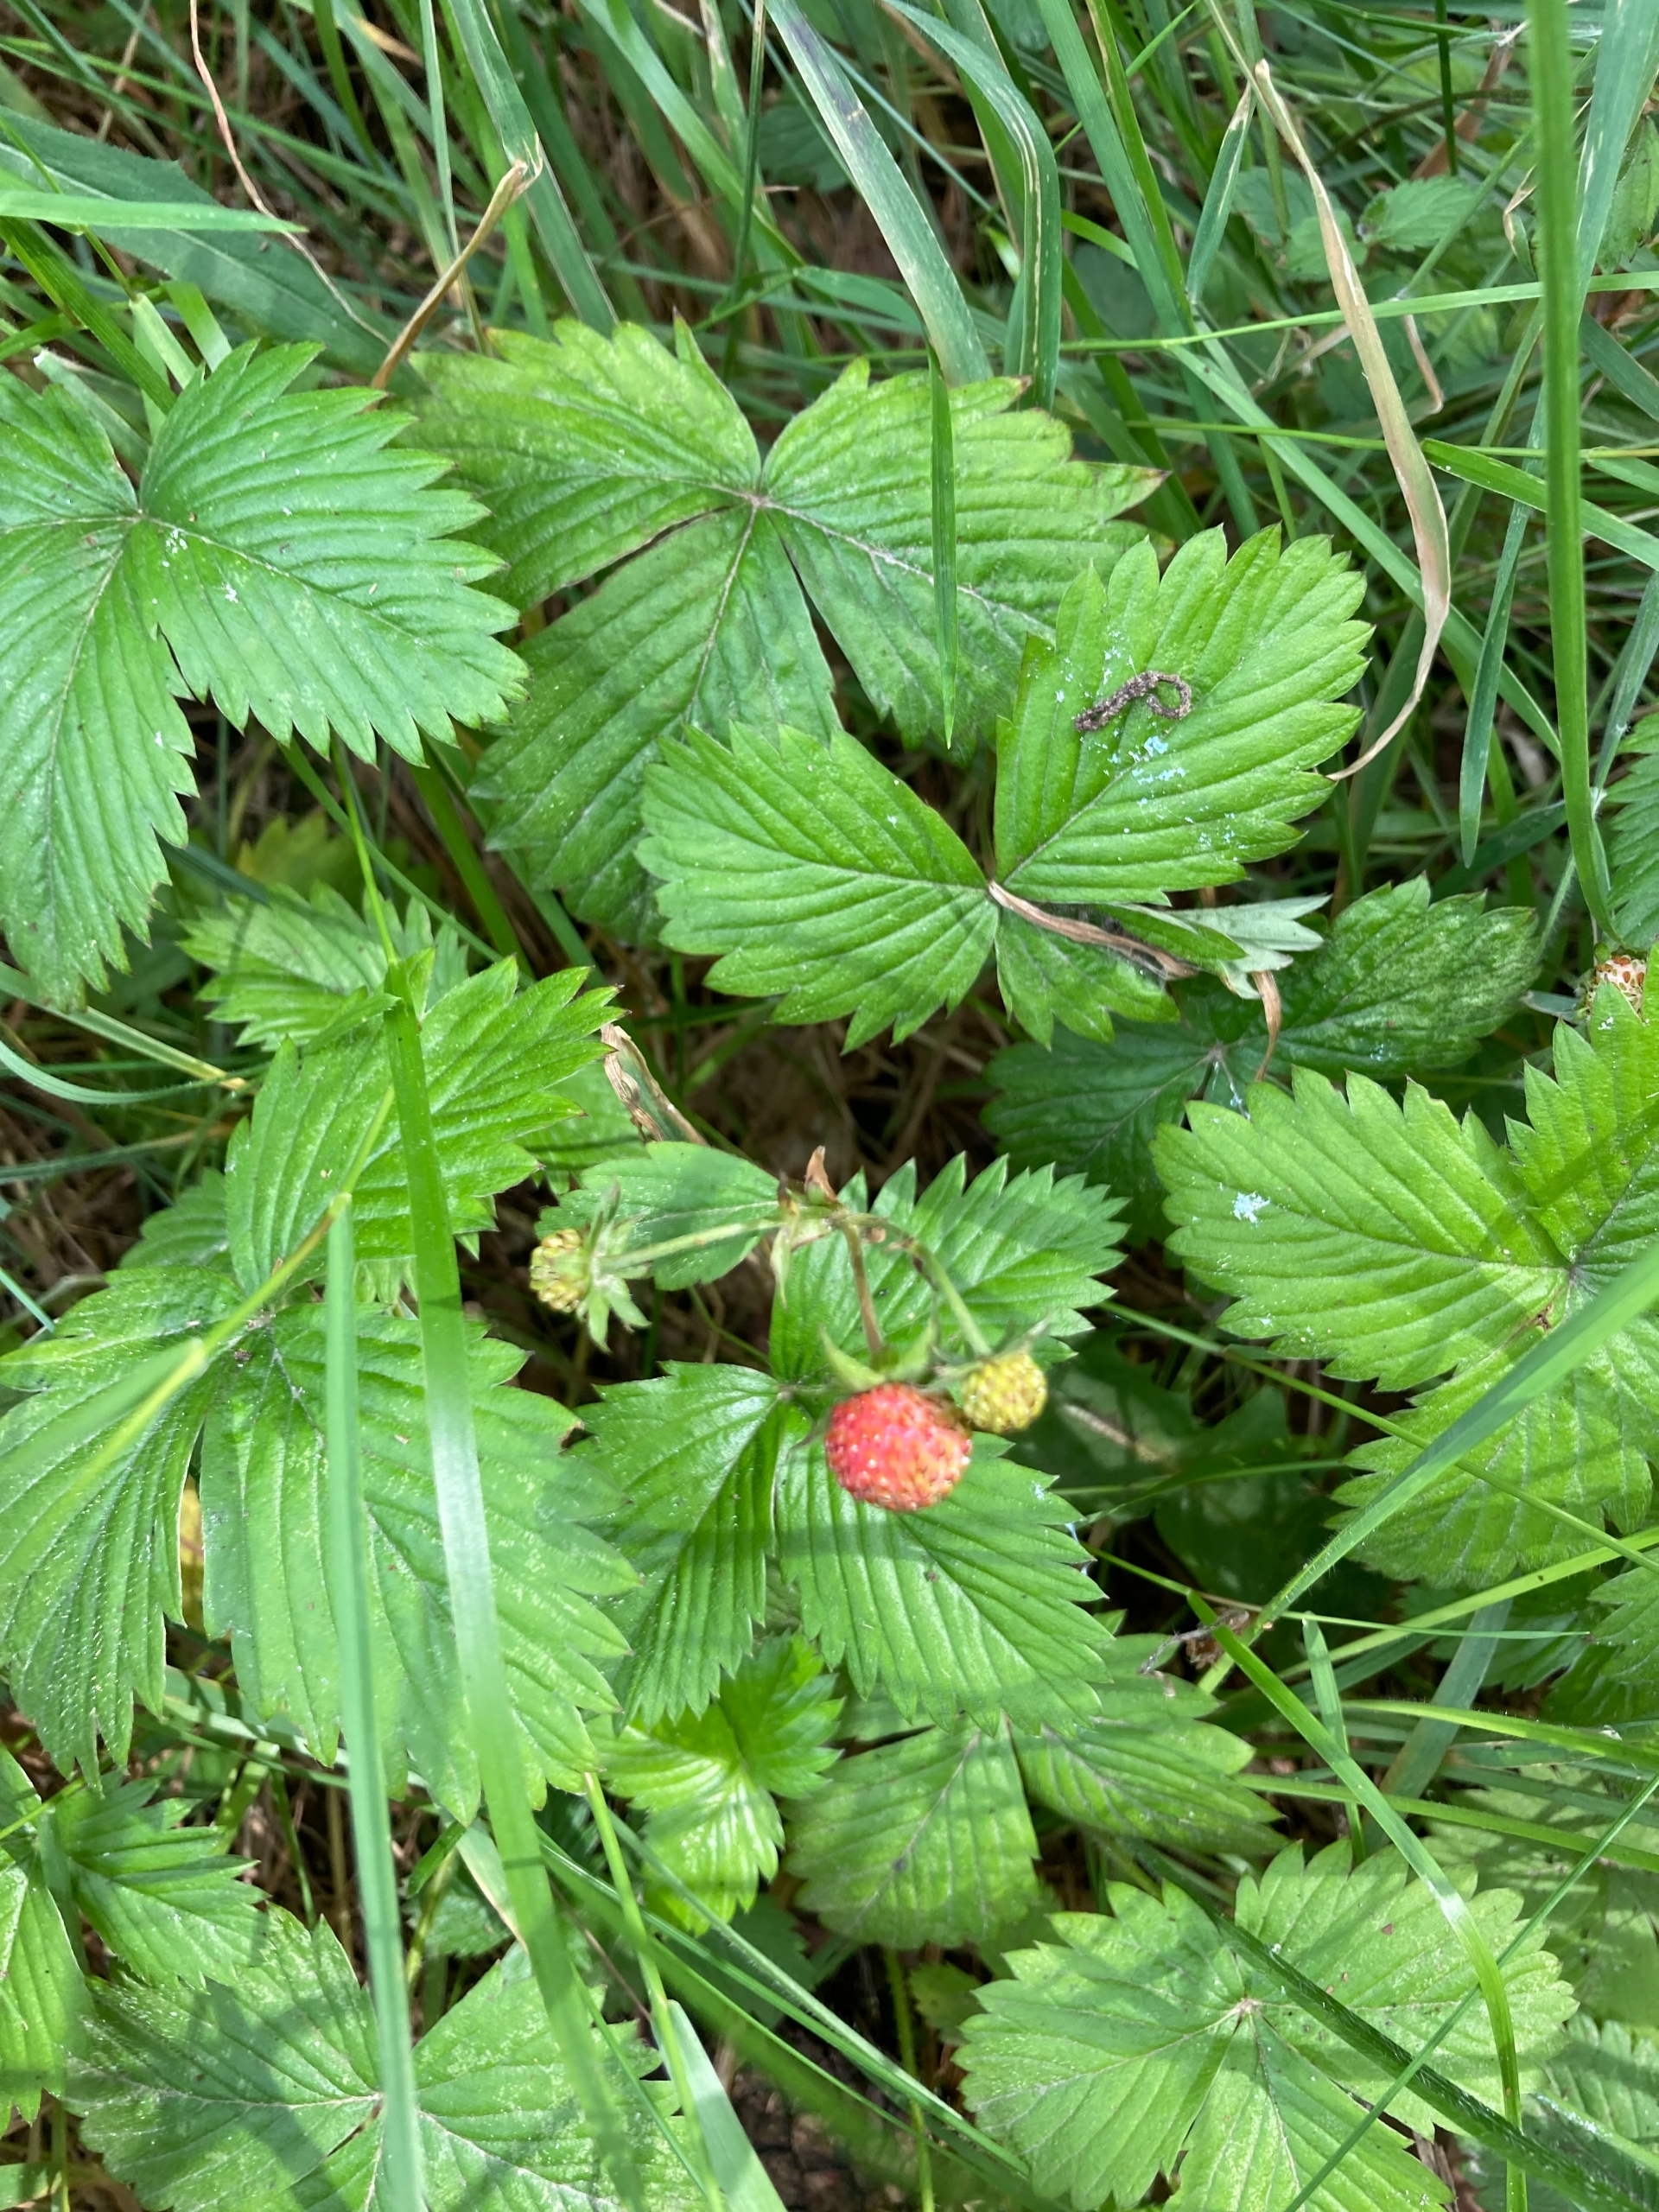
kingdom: Plantae
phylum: Tracheophyta
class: Magnoliopsida
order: Rosales
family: Rosaceae
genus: Fragaria
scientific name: Fragaria vesca
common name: Skov-jordbær
